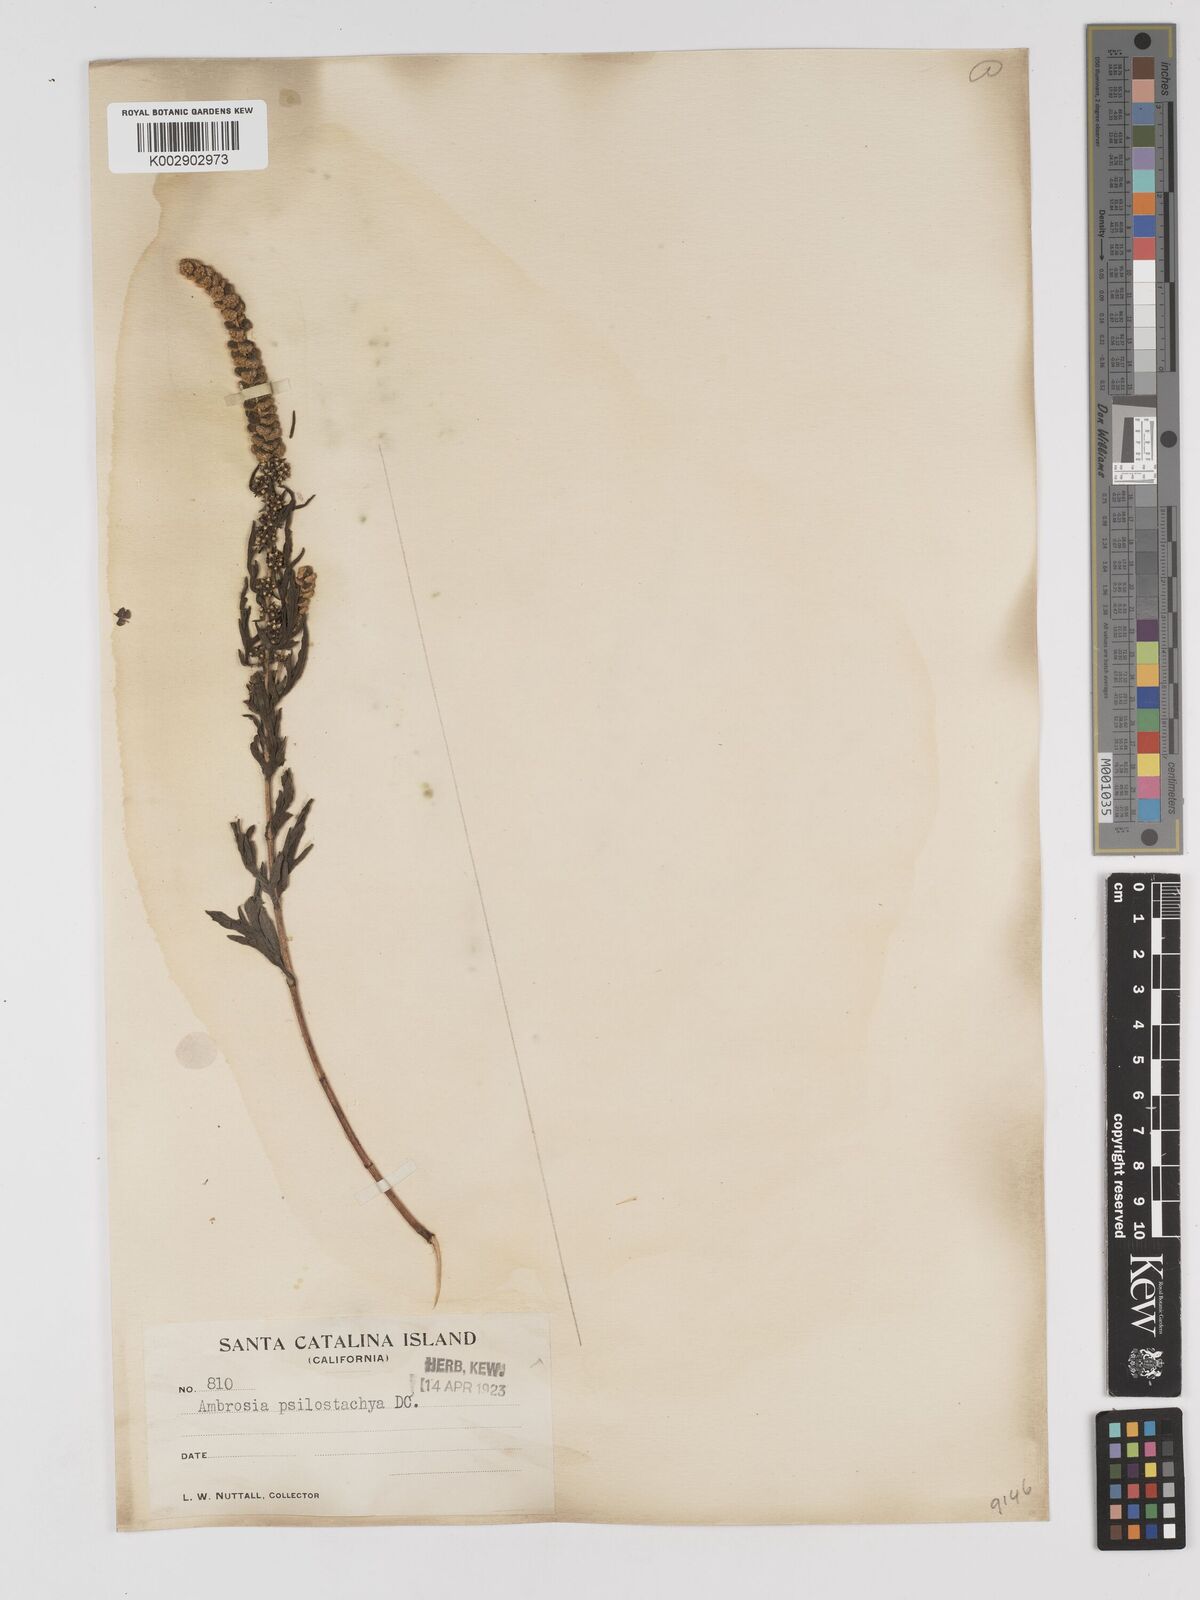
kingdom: Plantae
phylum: Tracheophyta
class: Magnoliopsida
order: Asterales
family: Asteraceae
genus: Ambrosia
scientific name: Ambrosia psilostachya
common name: Perennial ragweed
